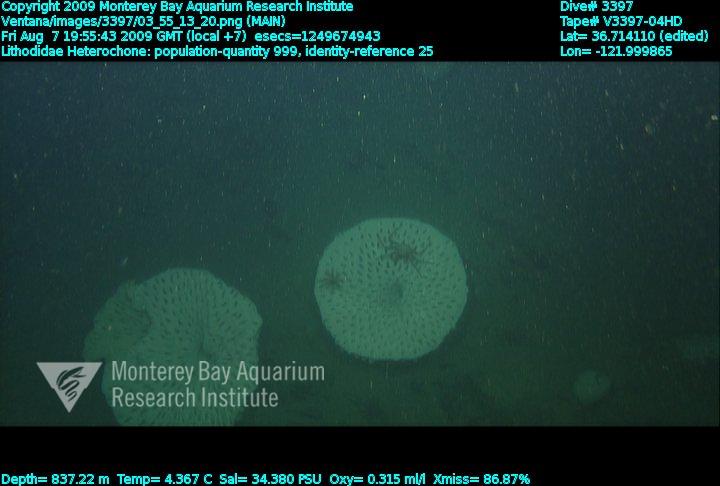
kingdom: Animalia
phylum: Porifera
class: Hexactinellida
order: Sceptrulophora
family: Aphrocallistidae
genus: Heterochone
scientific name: Heterochone
